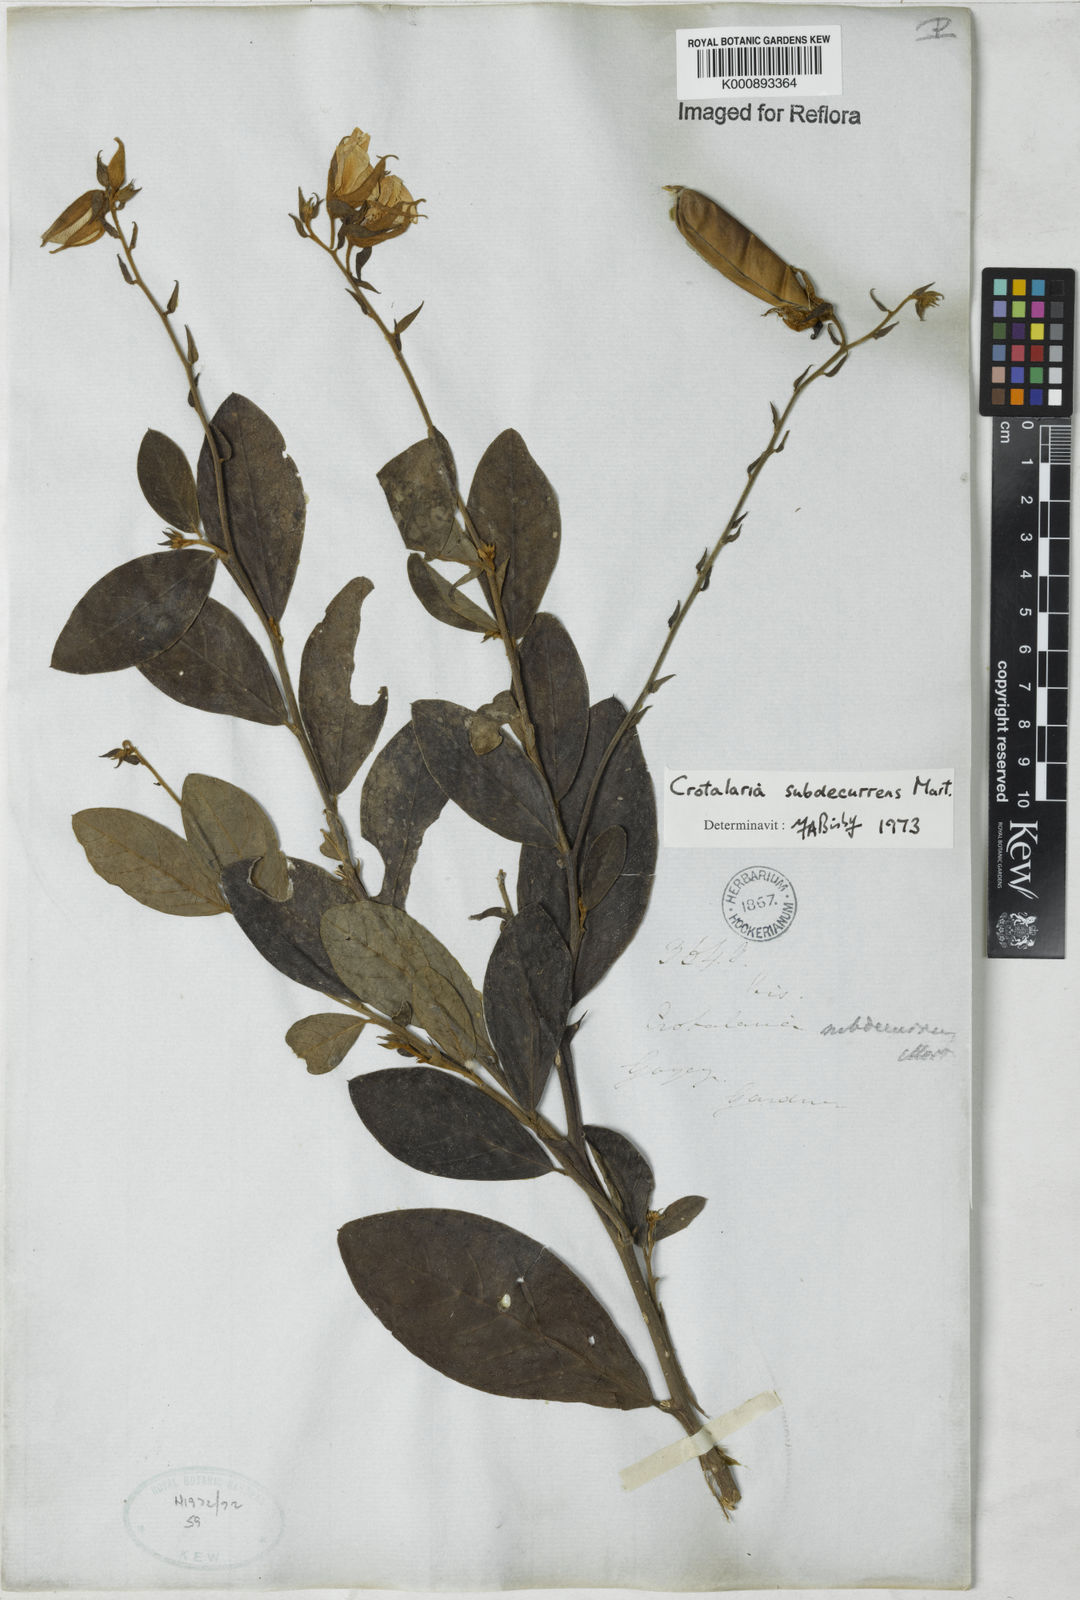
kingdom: Plantae
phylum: Tracheophyta
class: Magnoliopsida
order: Fabales
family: Fabaceae
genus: Crotalaria
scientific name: Crotalaria
